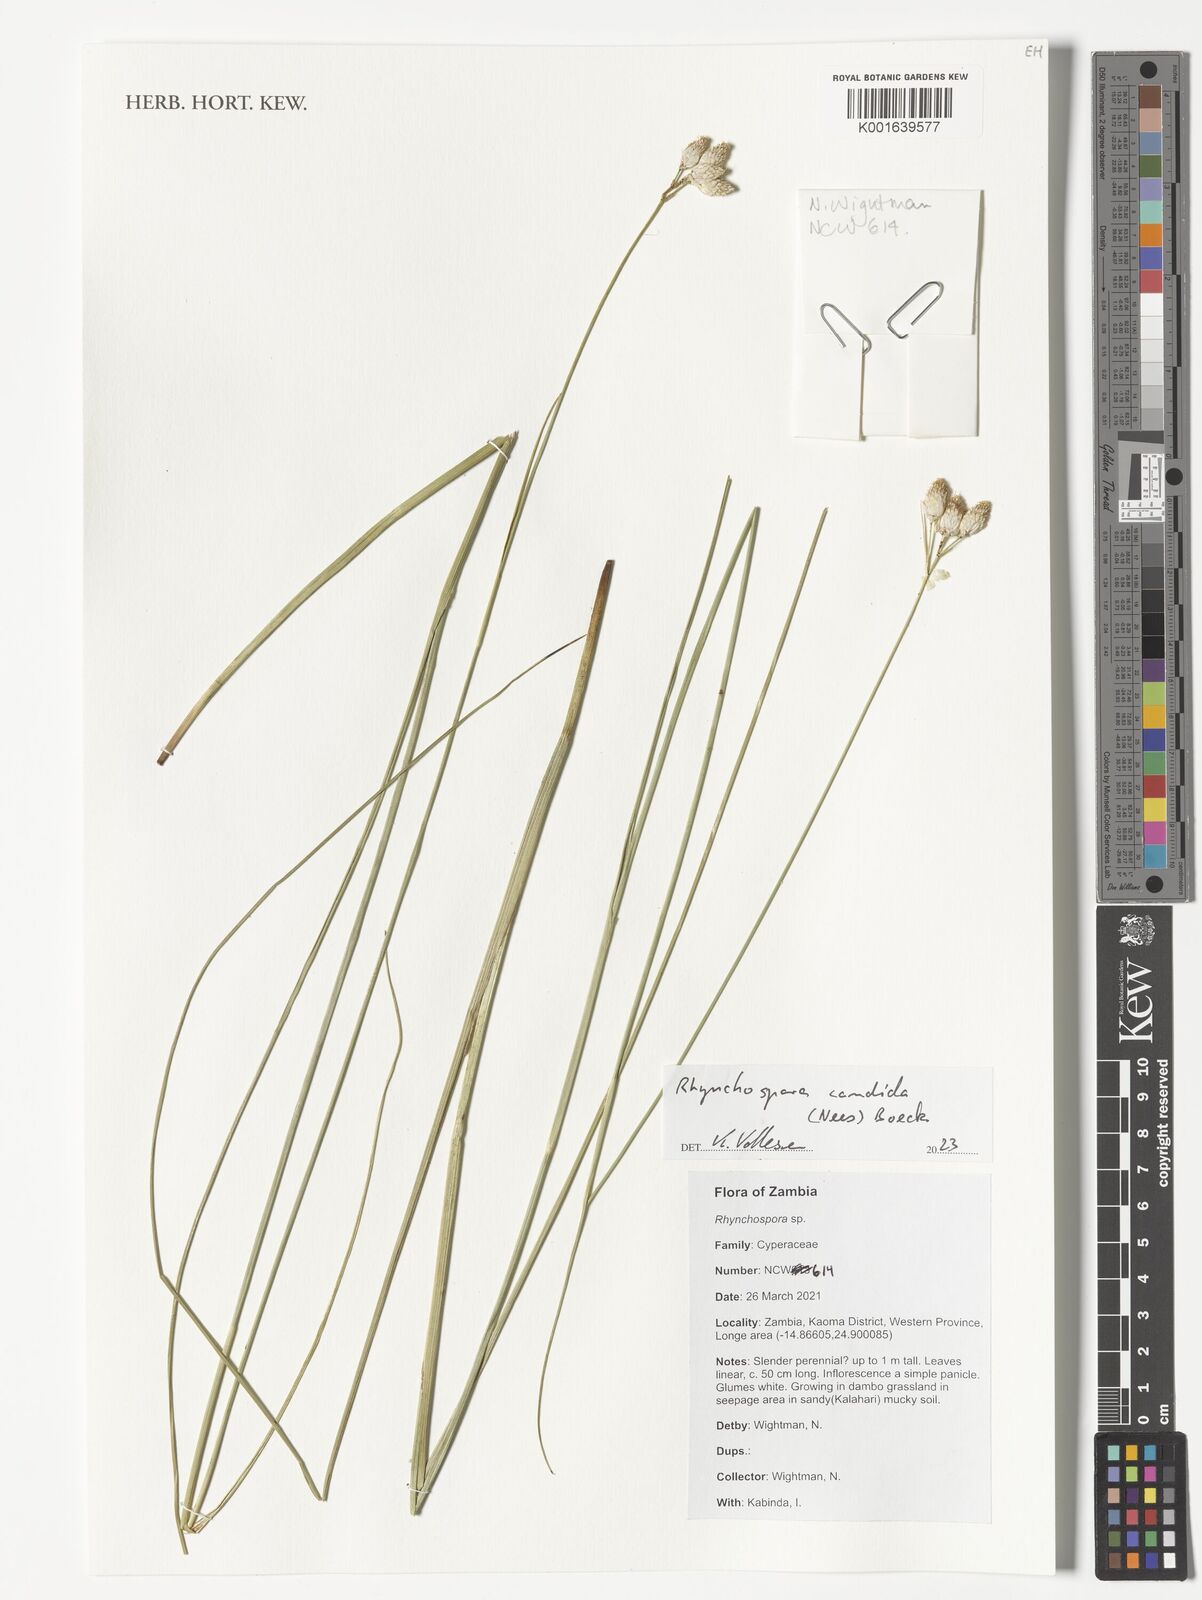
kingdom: Plantae
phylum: Tracheophyta
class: Liliopsida
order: Poales
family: Cyperaceae
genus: Rhynchospora
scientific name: Rhynchospora candida
